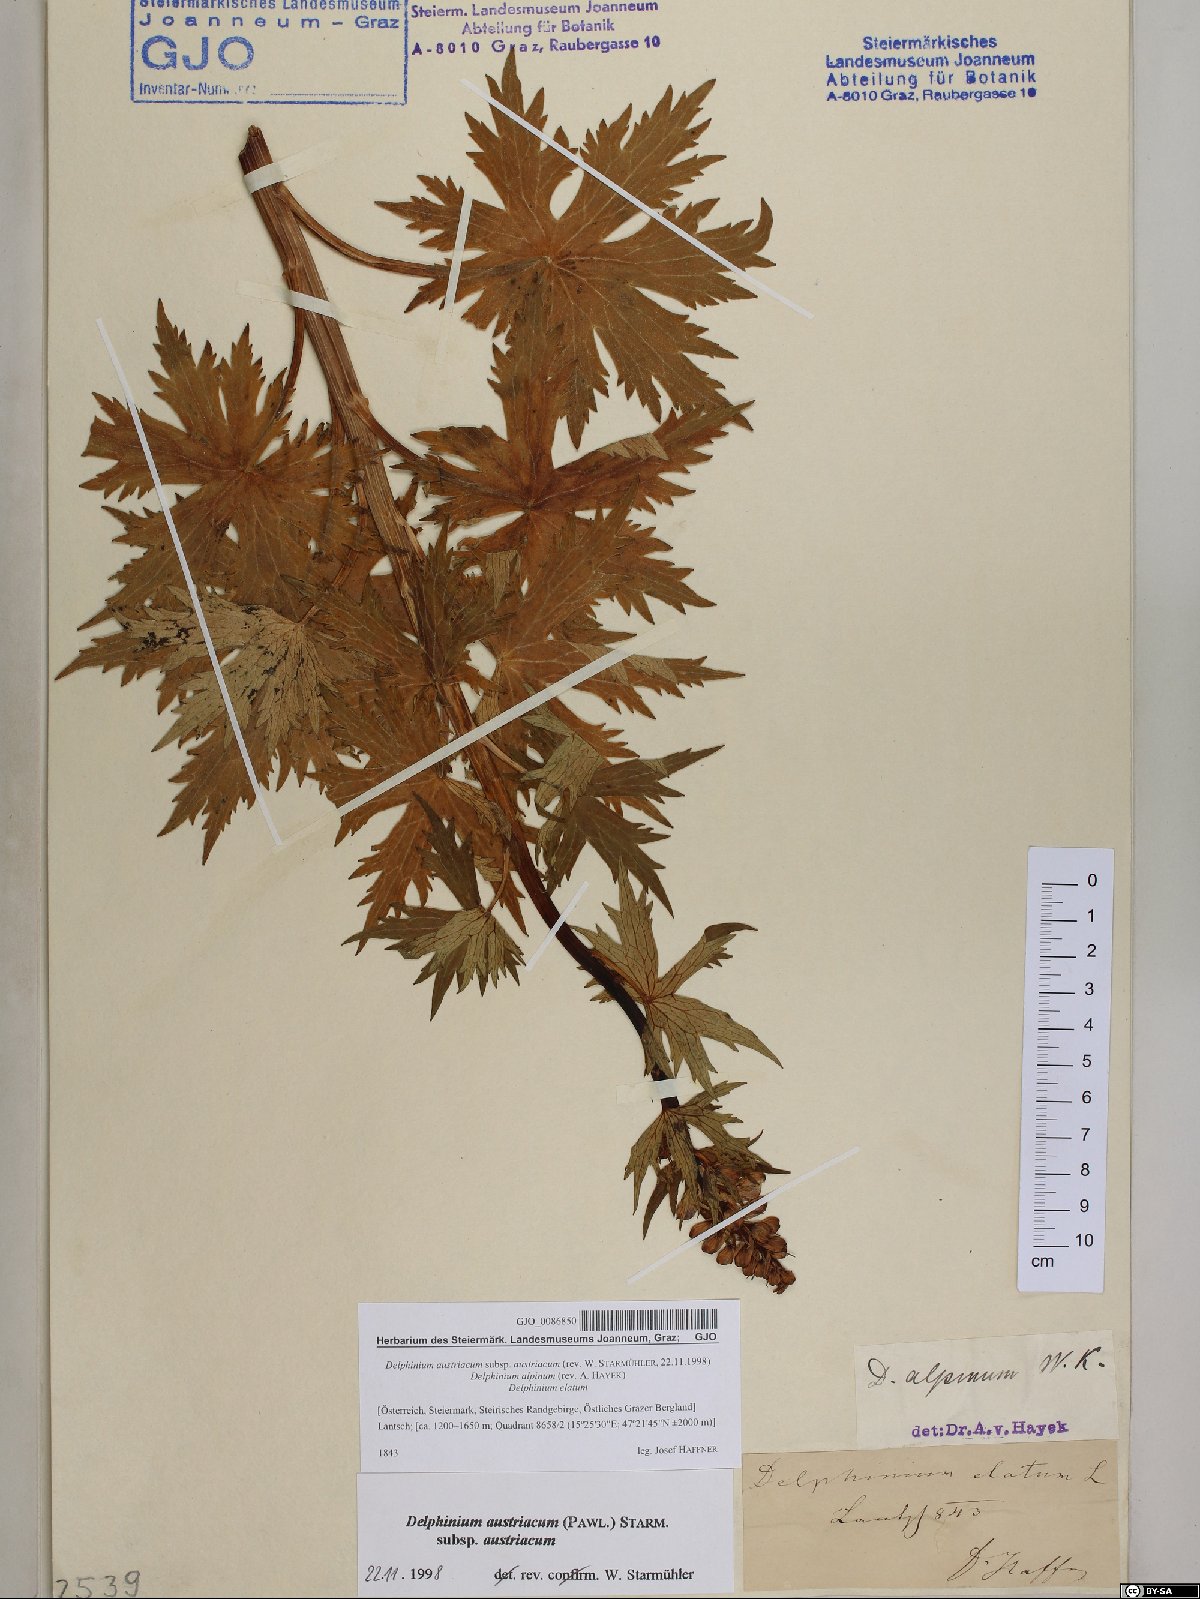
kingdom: Plantae
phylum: Tracheophyta
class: Magnoliopsida
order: Ranunculales
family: Ranunculaceae
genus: Delphinium
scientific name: Delphinium austriacum
